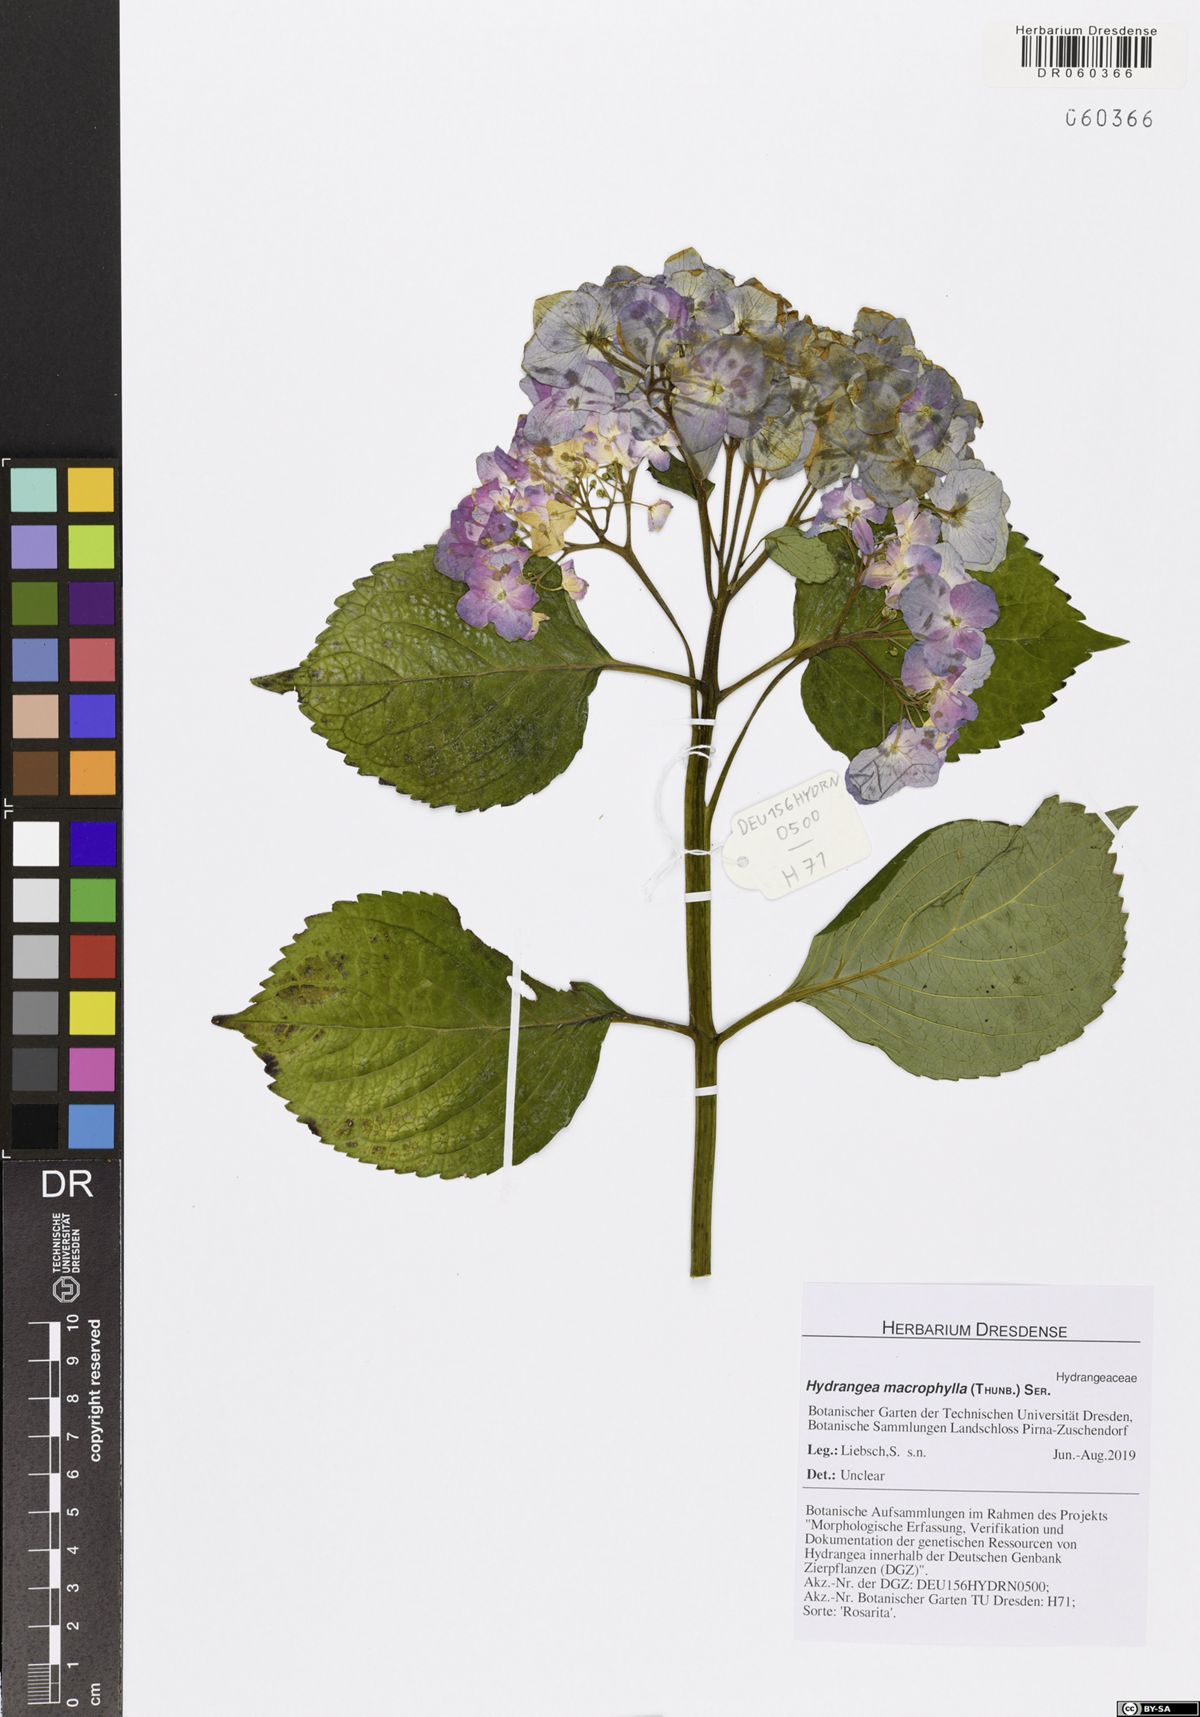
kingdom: Plantae
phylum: Tracheophyta
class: Magnoliopsida
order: Cornales
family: Hydrangeaceae
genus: Hydrangea
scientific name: Hydrangea macrophylla
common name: Hydrangea
